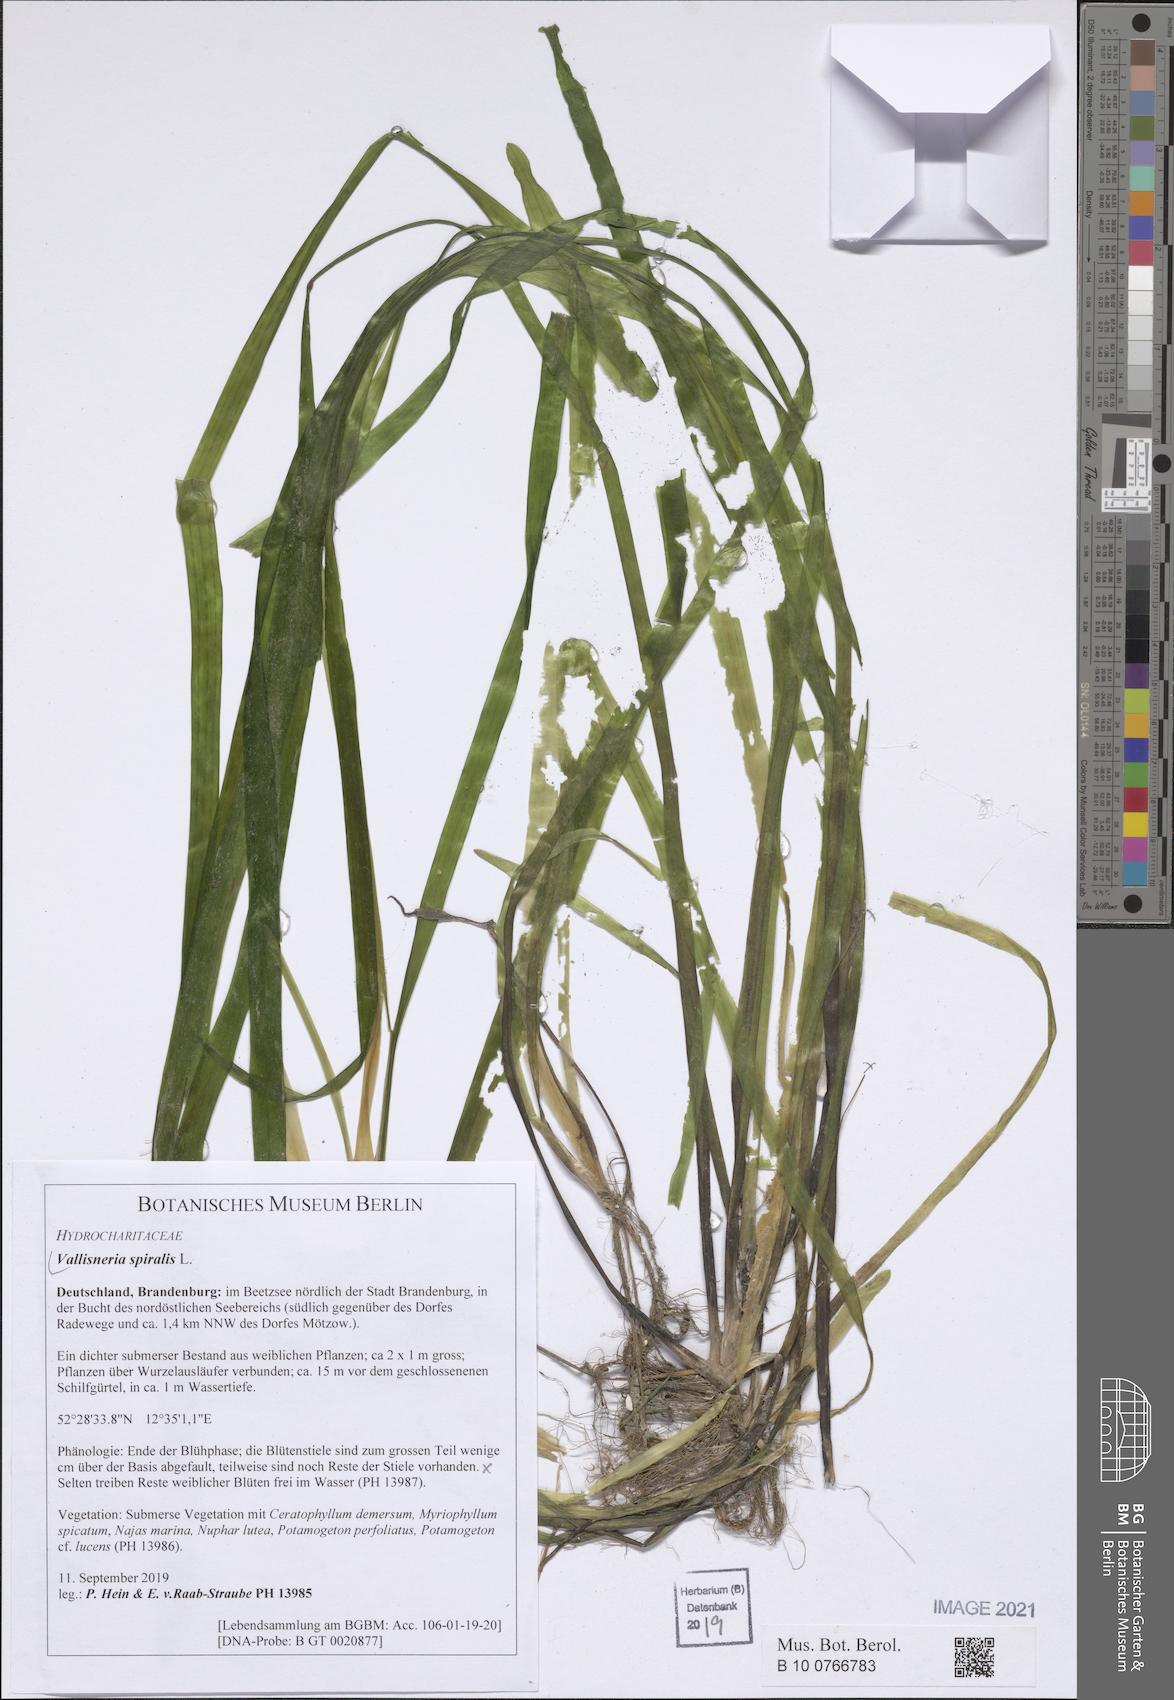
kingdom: Plantae
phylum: Tracheophyta
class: Liliopsida
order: Alismatales
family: Hydrocharitaceae
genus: Vallisneria
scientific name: Vallisneria spiralis
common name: Tapegrass
